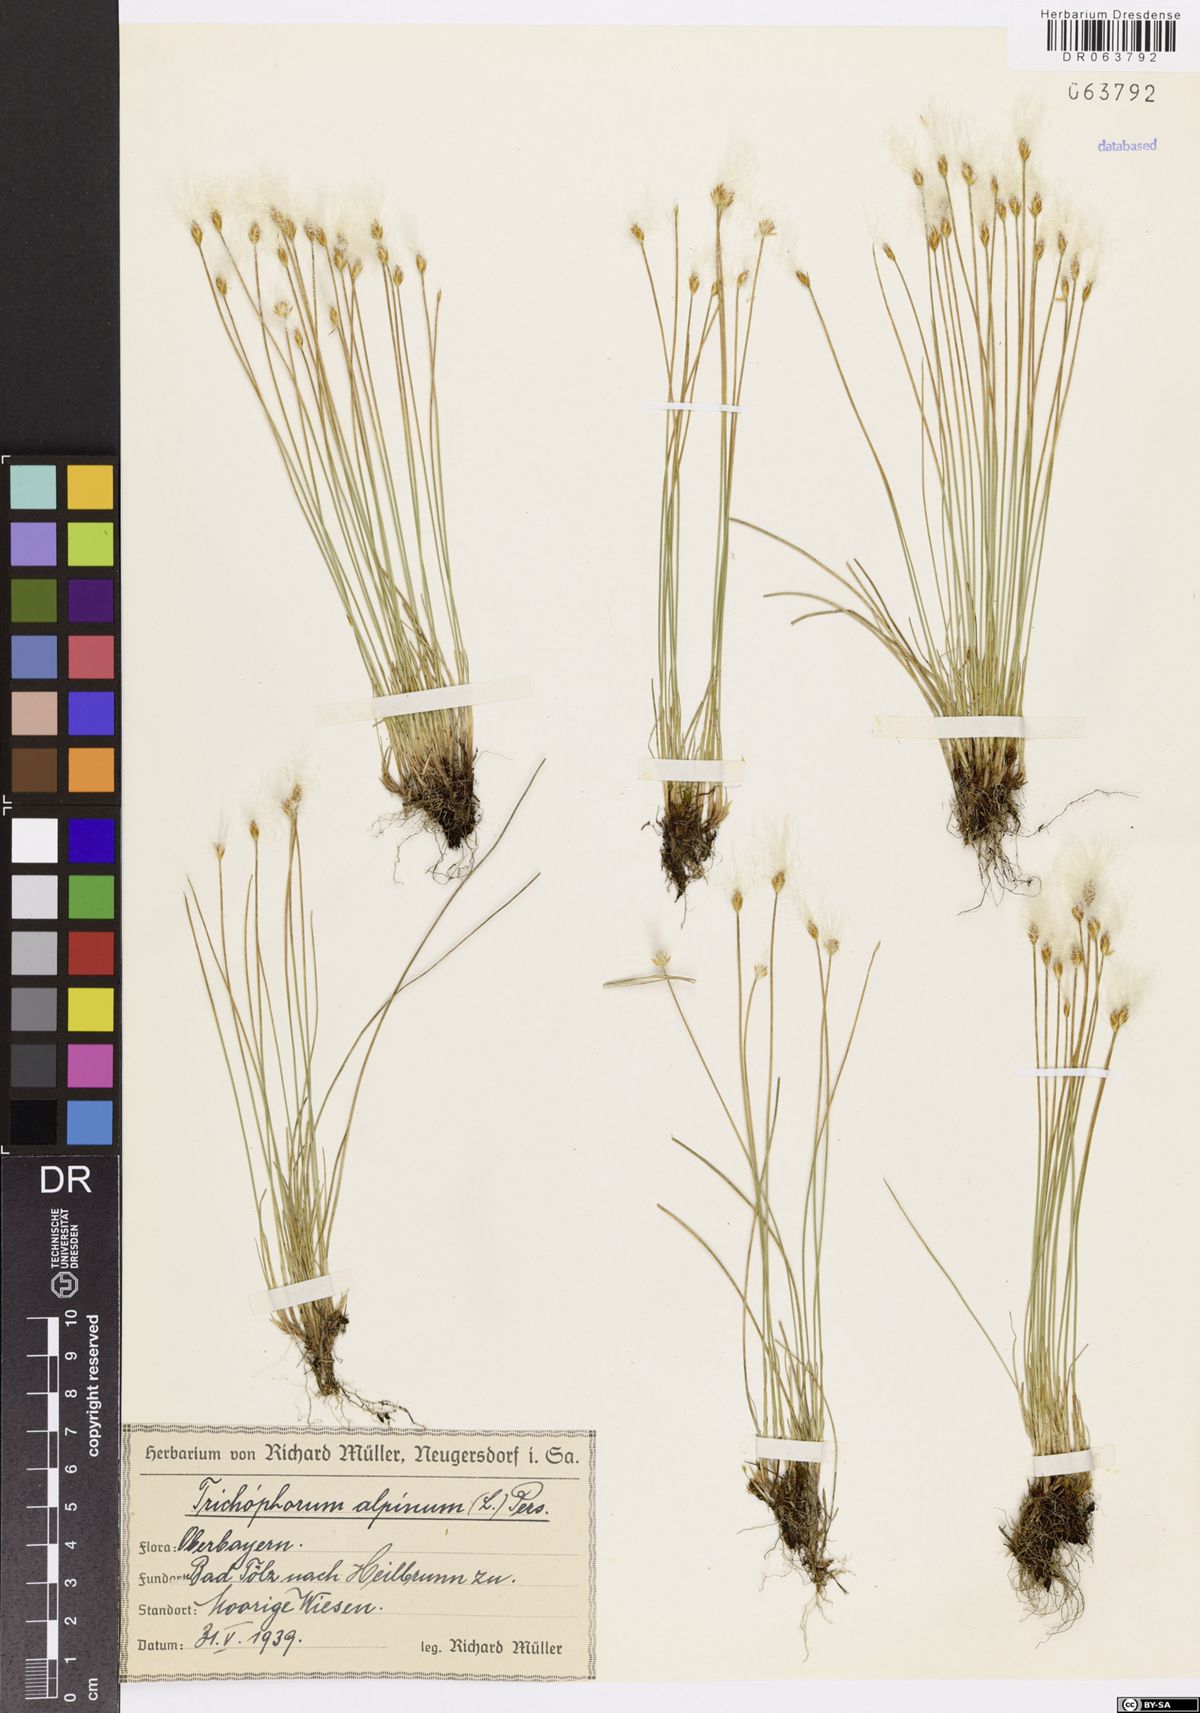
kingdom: Plantae
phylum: Tracheophyta
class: Liliopsida
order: Poales
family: Cyperaceae
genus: Trichophorum
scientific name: Trichophorum alpinum
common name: Alpine bulrush
